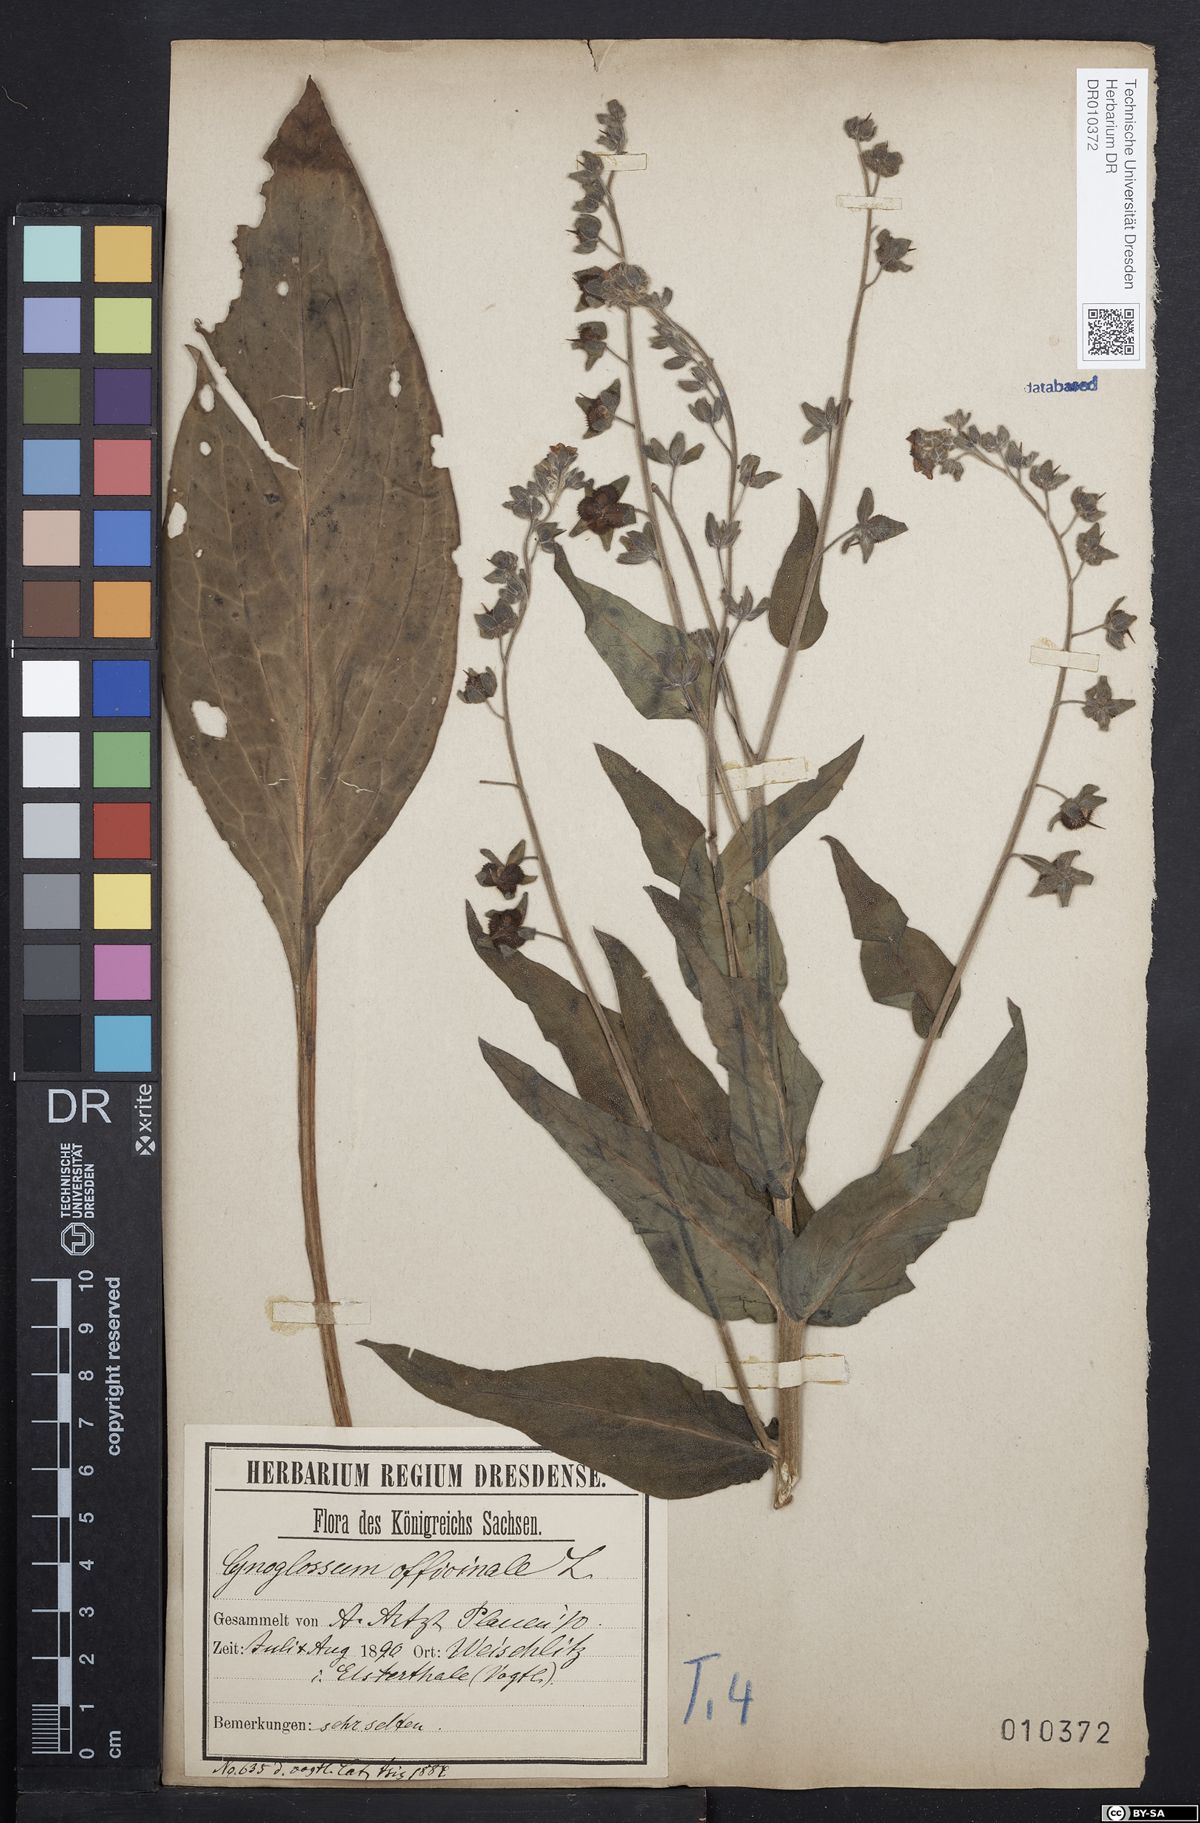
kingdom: Plantae
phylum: Tracheophyta
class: Magnoliopsida
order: Boraginales
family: Boraginaceae
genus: Cynoglossum
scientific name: Cynoglossum officinale
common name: Hound's-tongue
